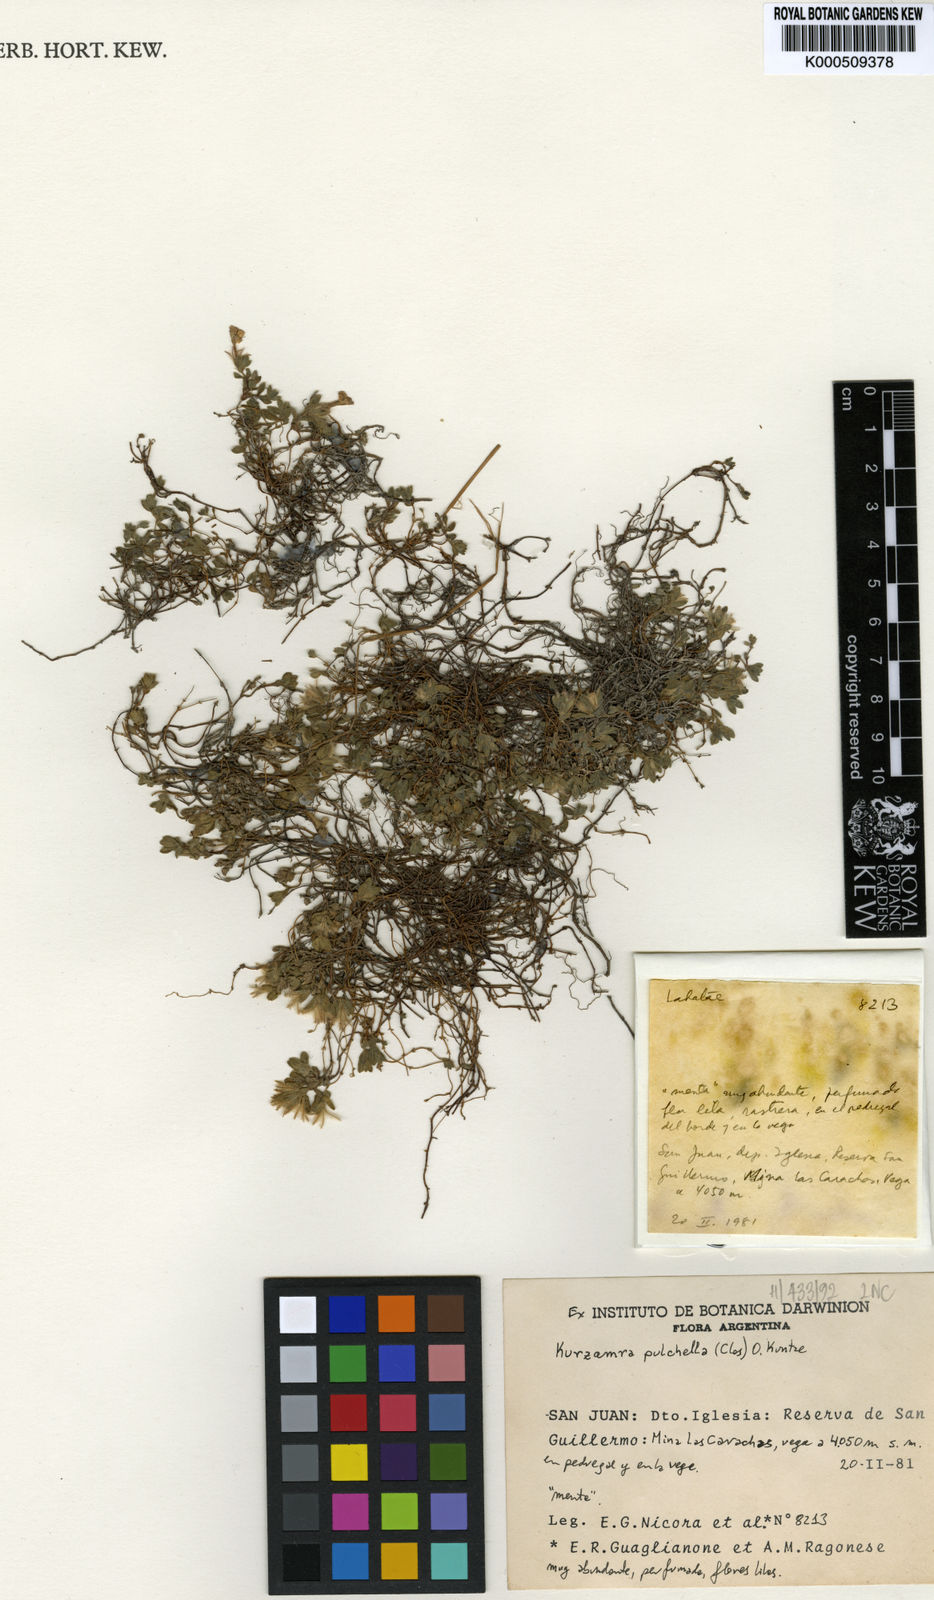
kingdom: Plantae
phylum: Tracheophyta
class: Magnoliopsida
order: Lamiales
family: Lamiaceae
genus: Kurzamra
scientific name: Kurzamra pulchella
